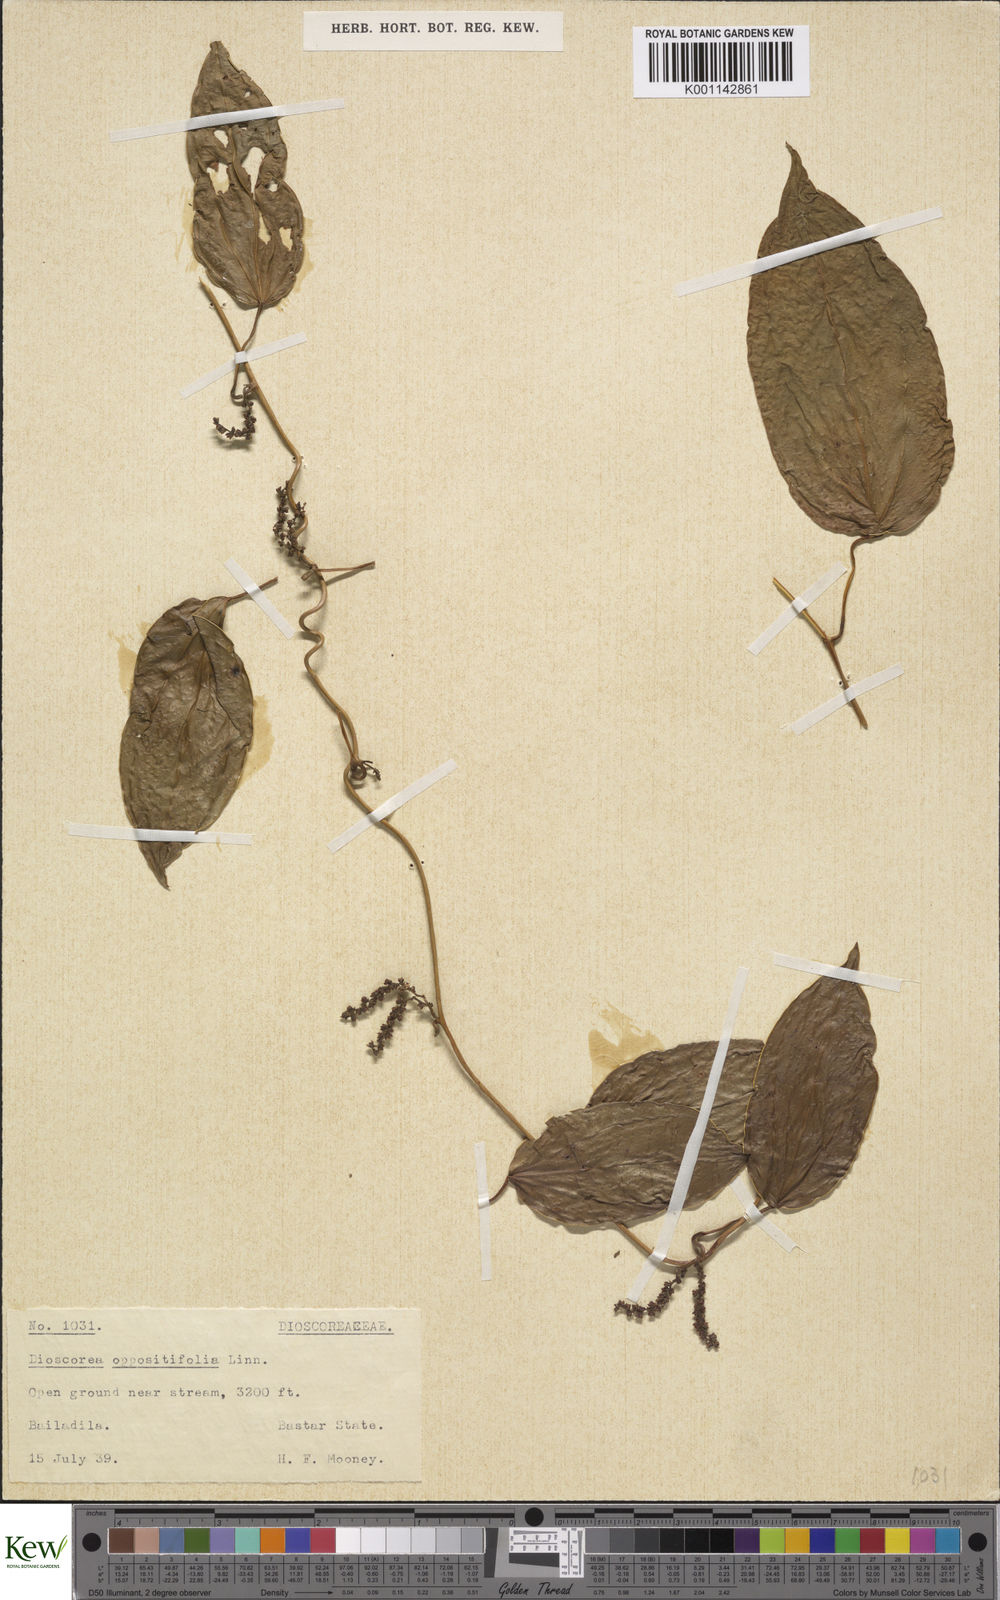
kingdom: Plantae
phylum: Tracheophyta
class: Liliopsida
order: Dioscoreales
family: Dioscoreaceae
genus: Dioscorea
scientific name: Dioscorea oppositifolia
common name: Chinese yam
